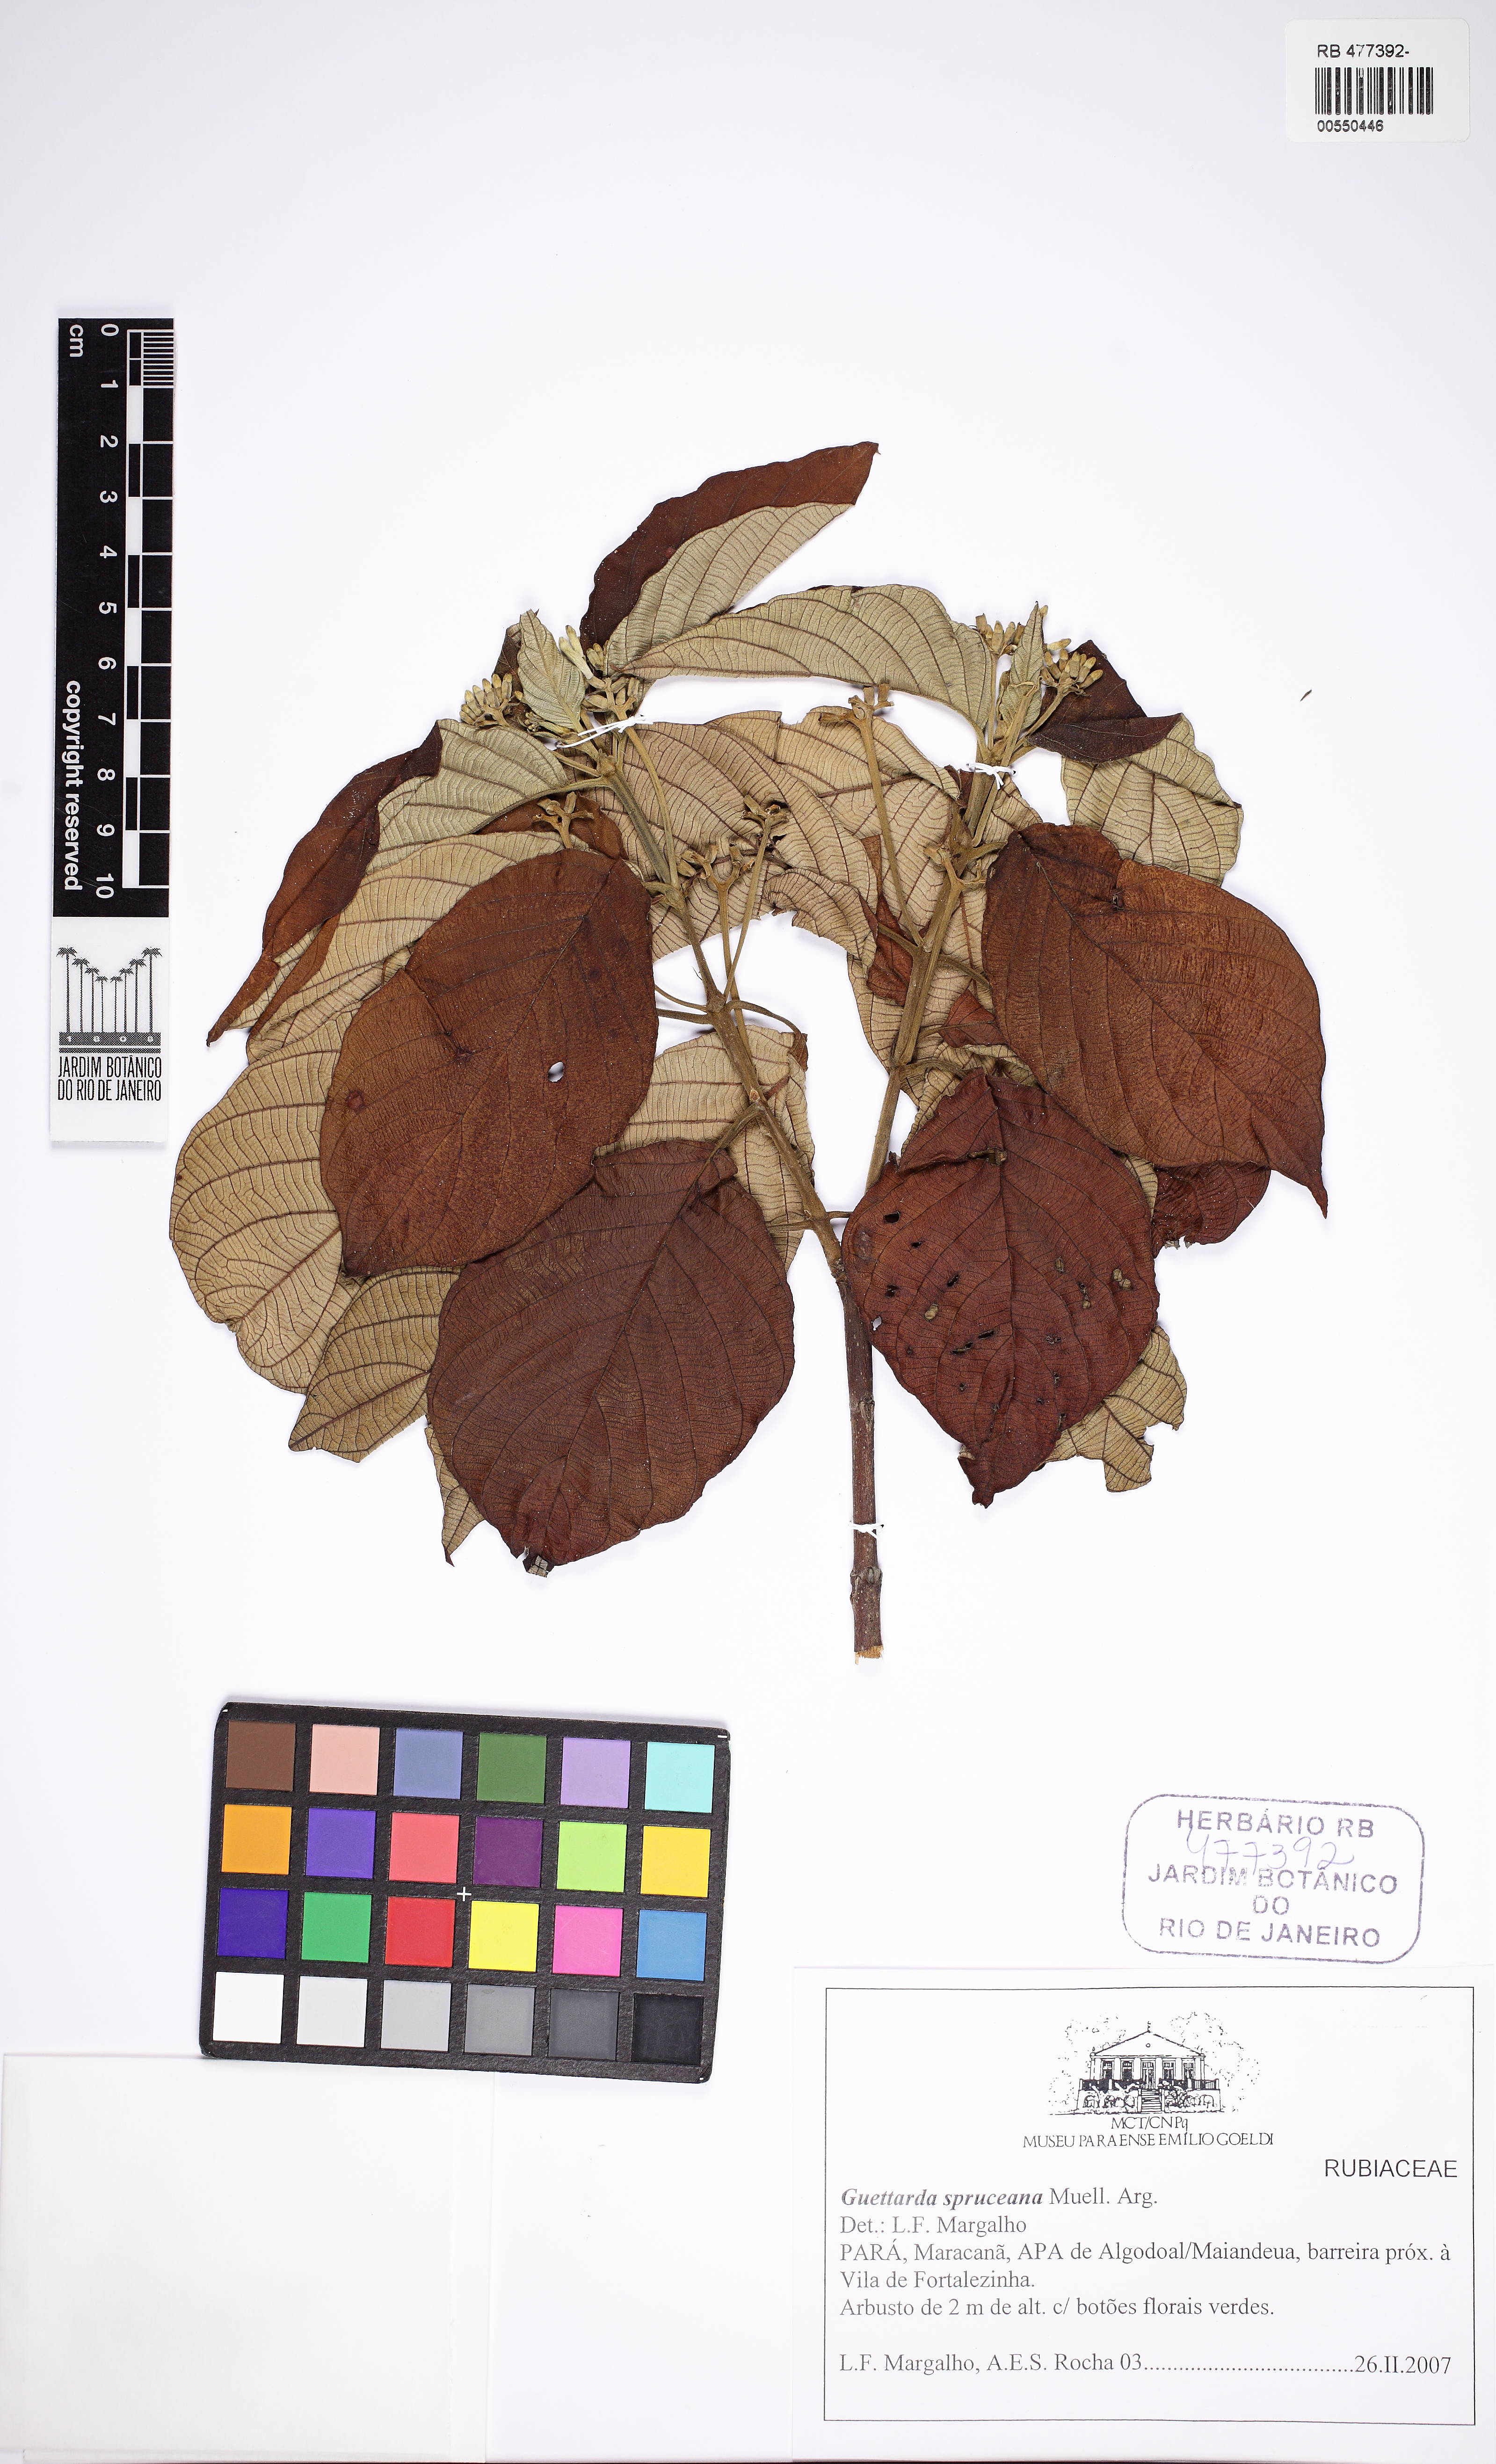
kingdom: Plantae
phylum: Tracheophyta
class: Magnoliopsida
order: Gentianales
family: Rubiaceae
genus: Guettarda
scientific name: Guettarda spruceana
